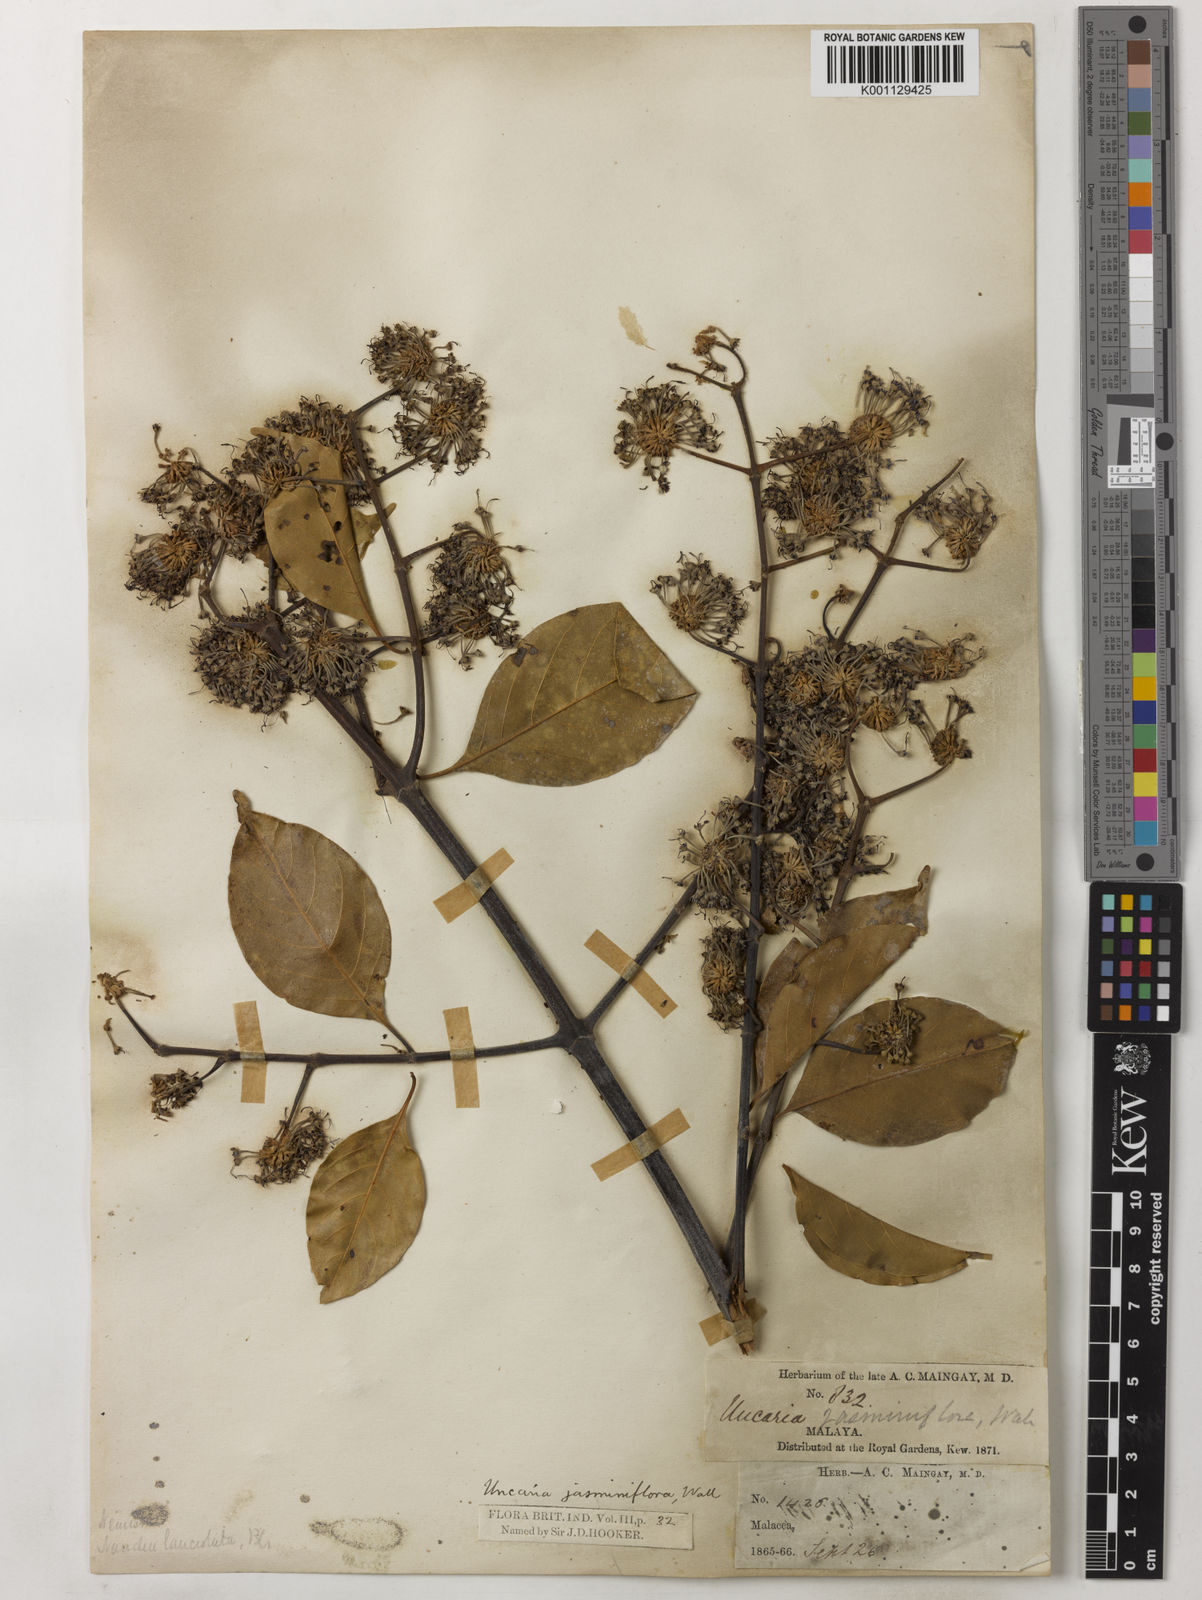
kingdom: Plantae
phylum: Tracheophyta
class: Magnoliopsida
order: Gentianales
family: Rubiaceae
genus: Uncaria
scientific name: Uncaria callophylla
